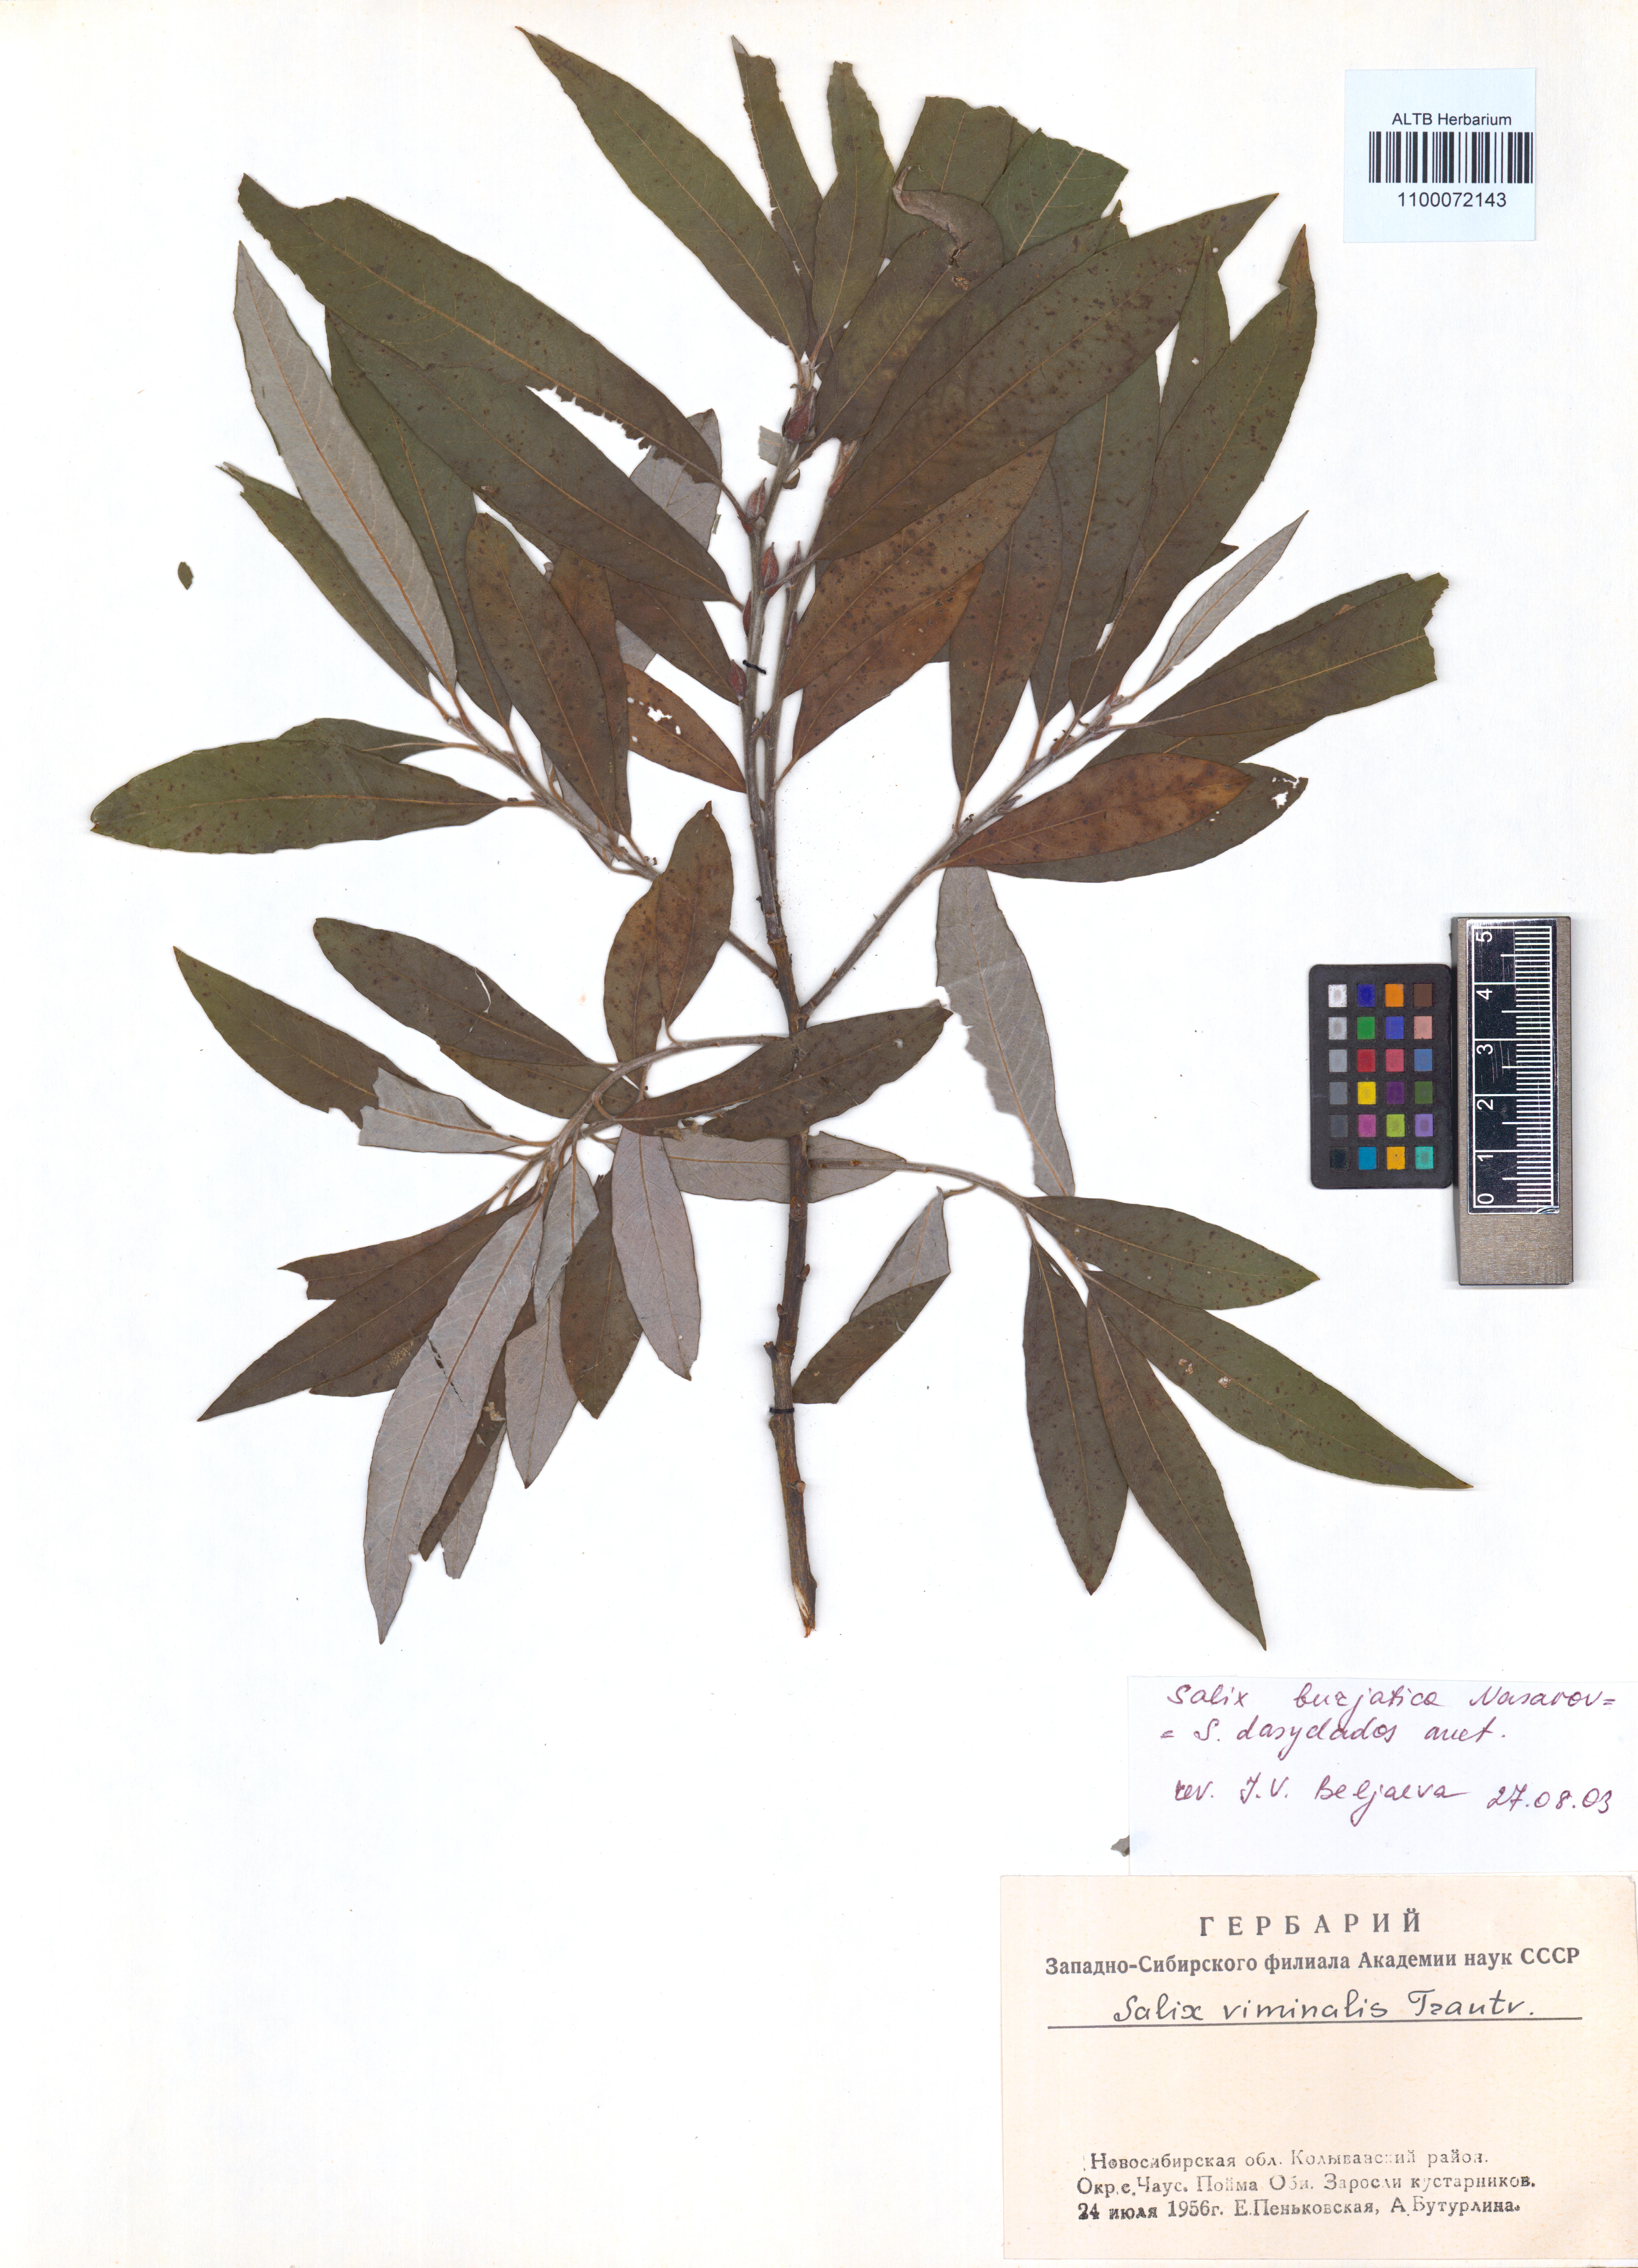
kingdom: Plantae
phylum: Tracheophyta
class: Magnoliopsida
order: Malpighiales
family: Salicaceae
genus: Salix
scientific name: Salix gmelinii
